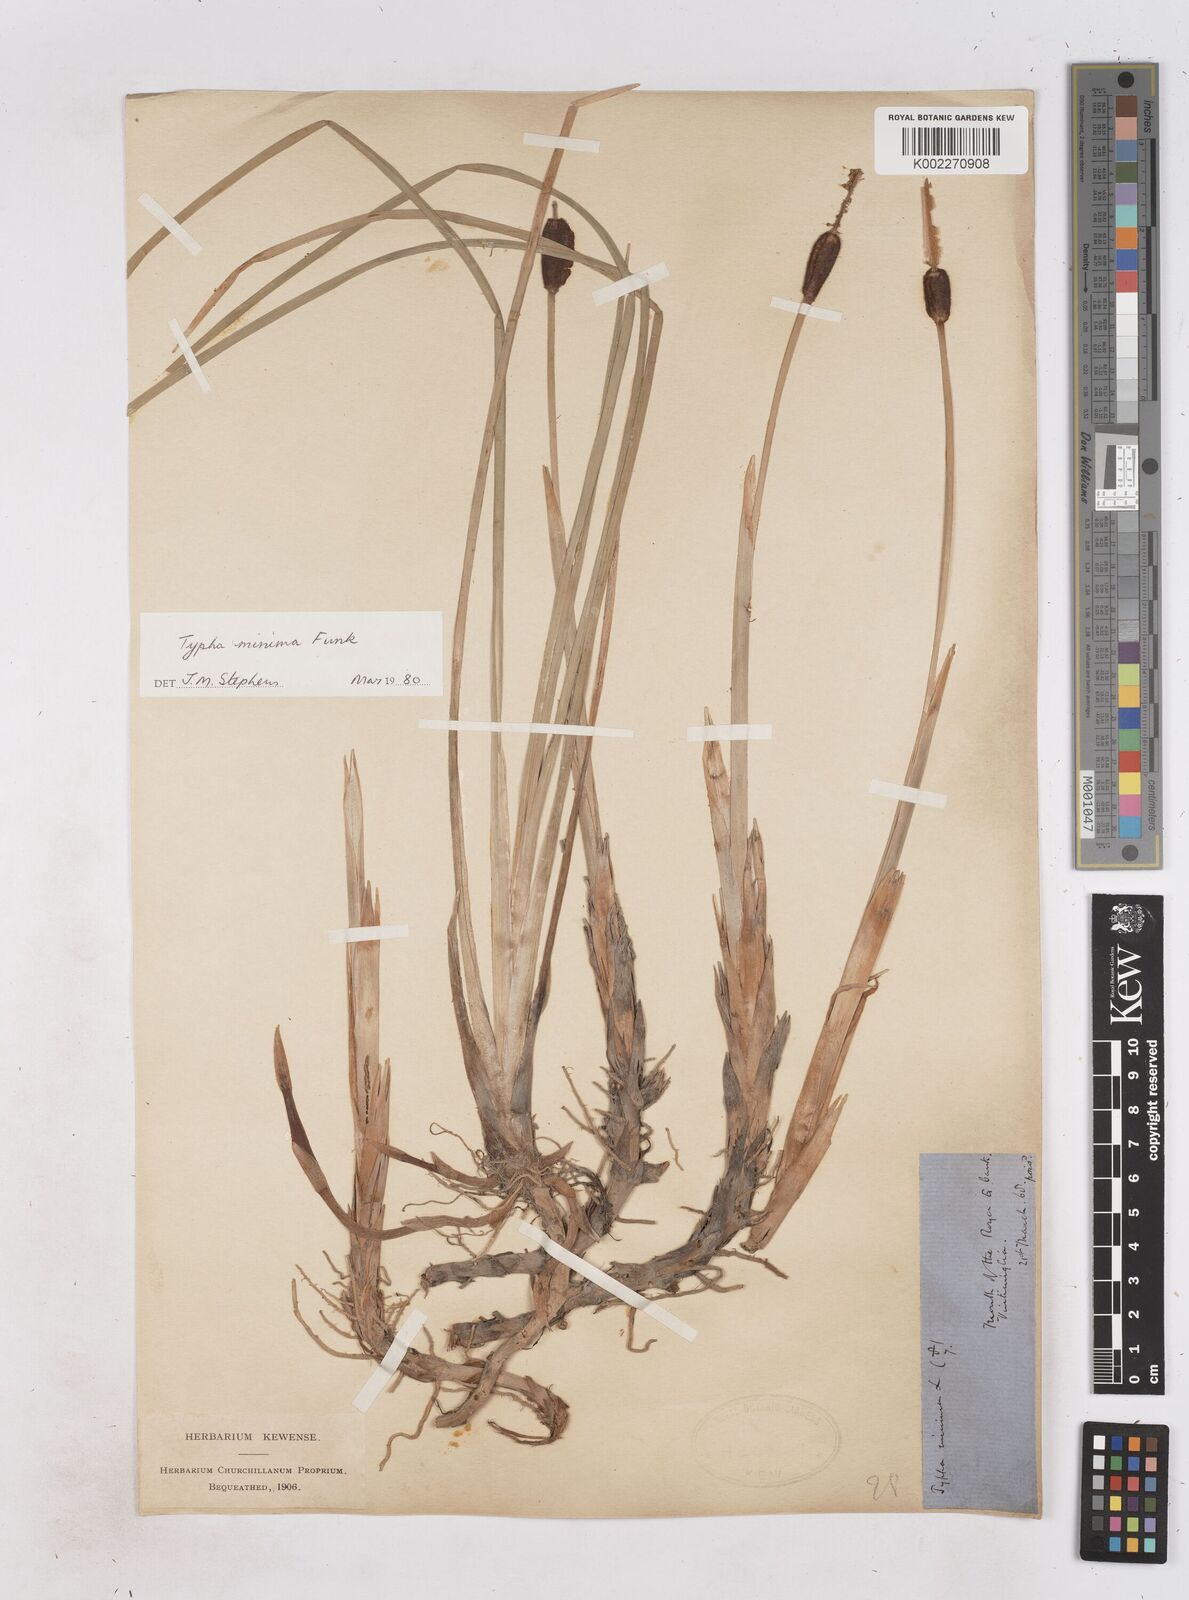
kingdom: Plantae
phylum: Tracheophyta
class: Liliopsida
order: Poales
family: Typhaceae
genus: Typha
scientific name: Typha
